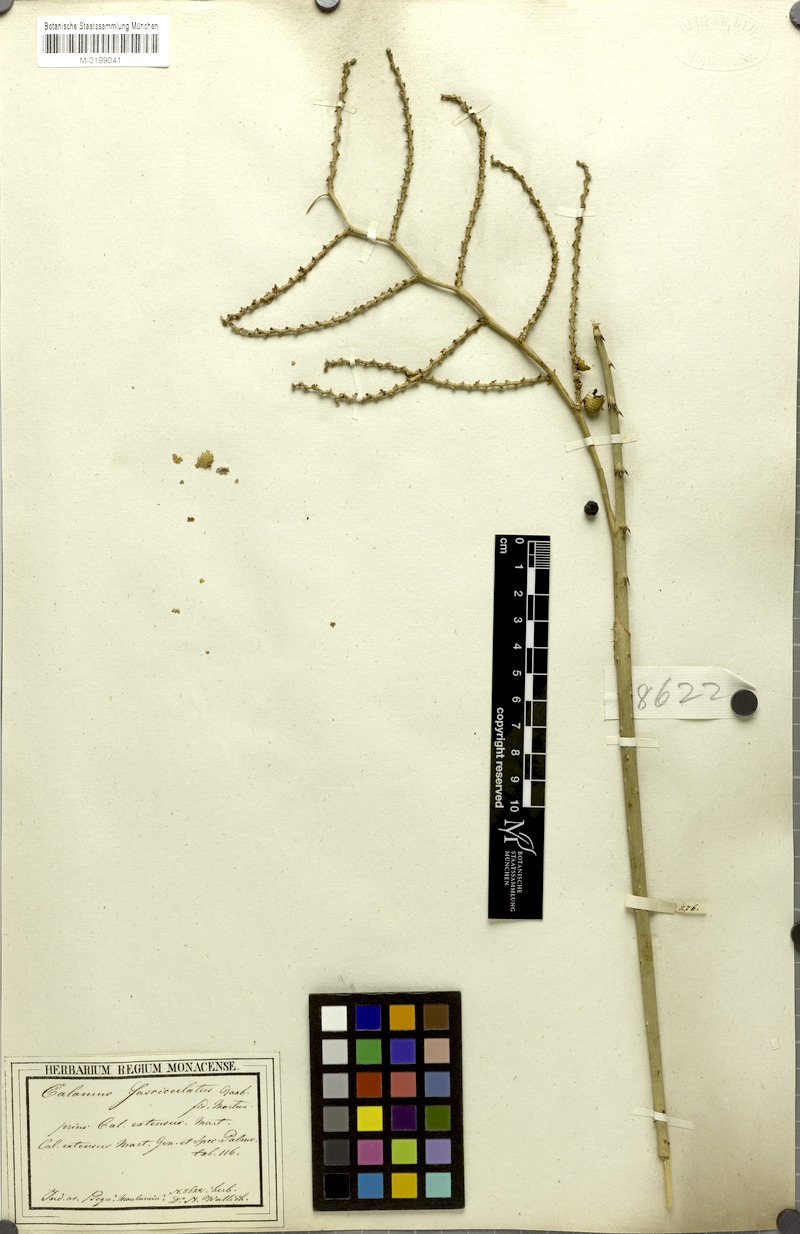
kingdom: Plantae
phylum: Tracheophyta
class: Liliopsida
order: Arecales
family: Arecaceae
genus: Calamus
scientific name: Calamus viminalis
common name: Osier-like rattan palm
